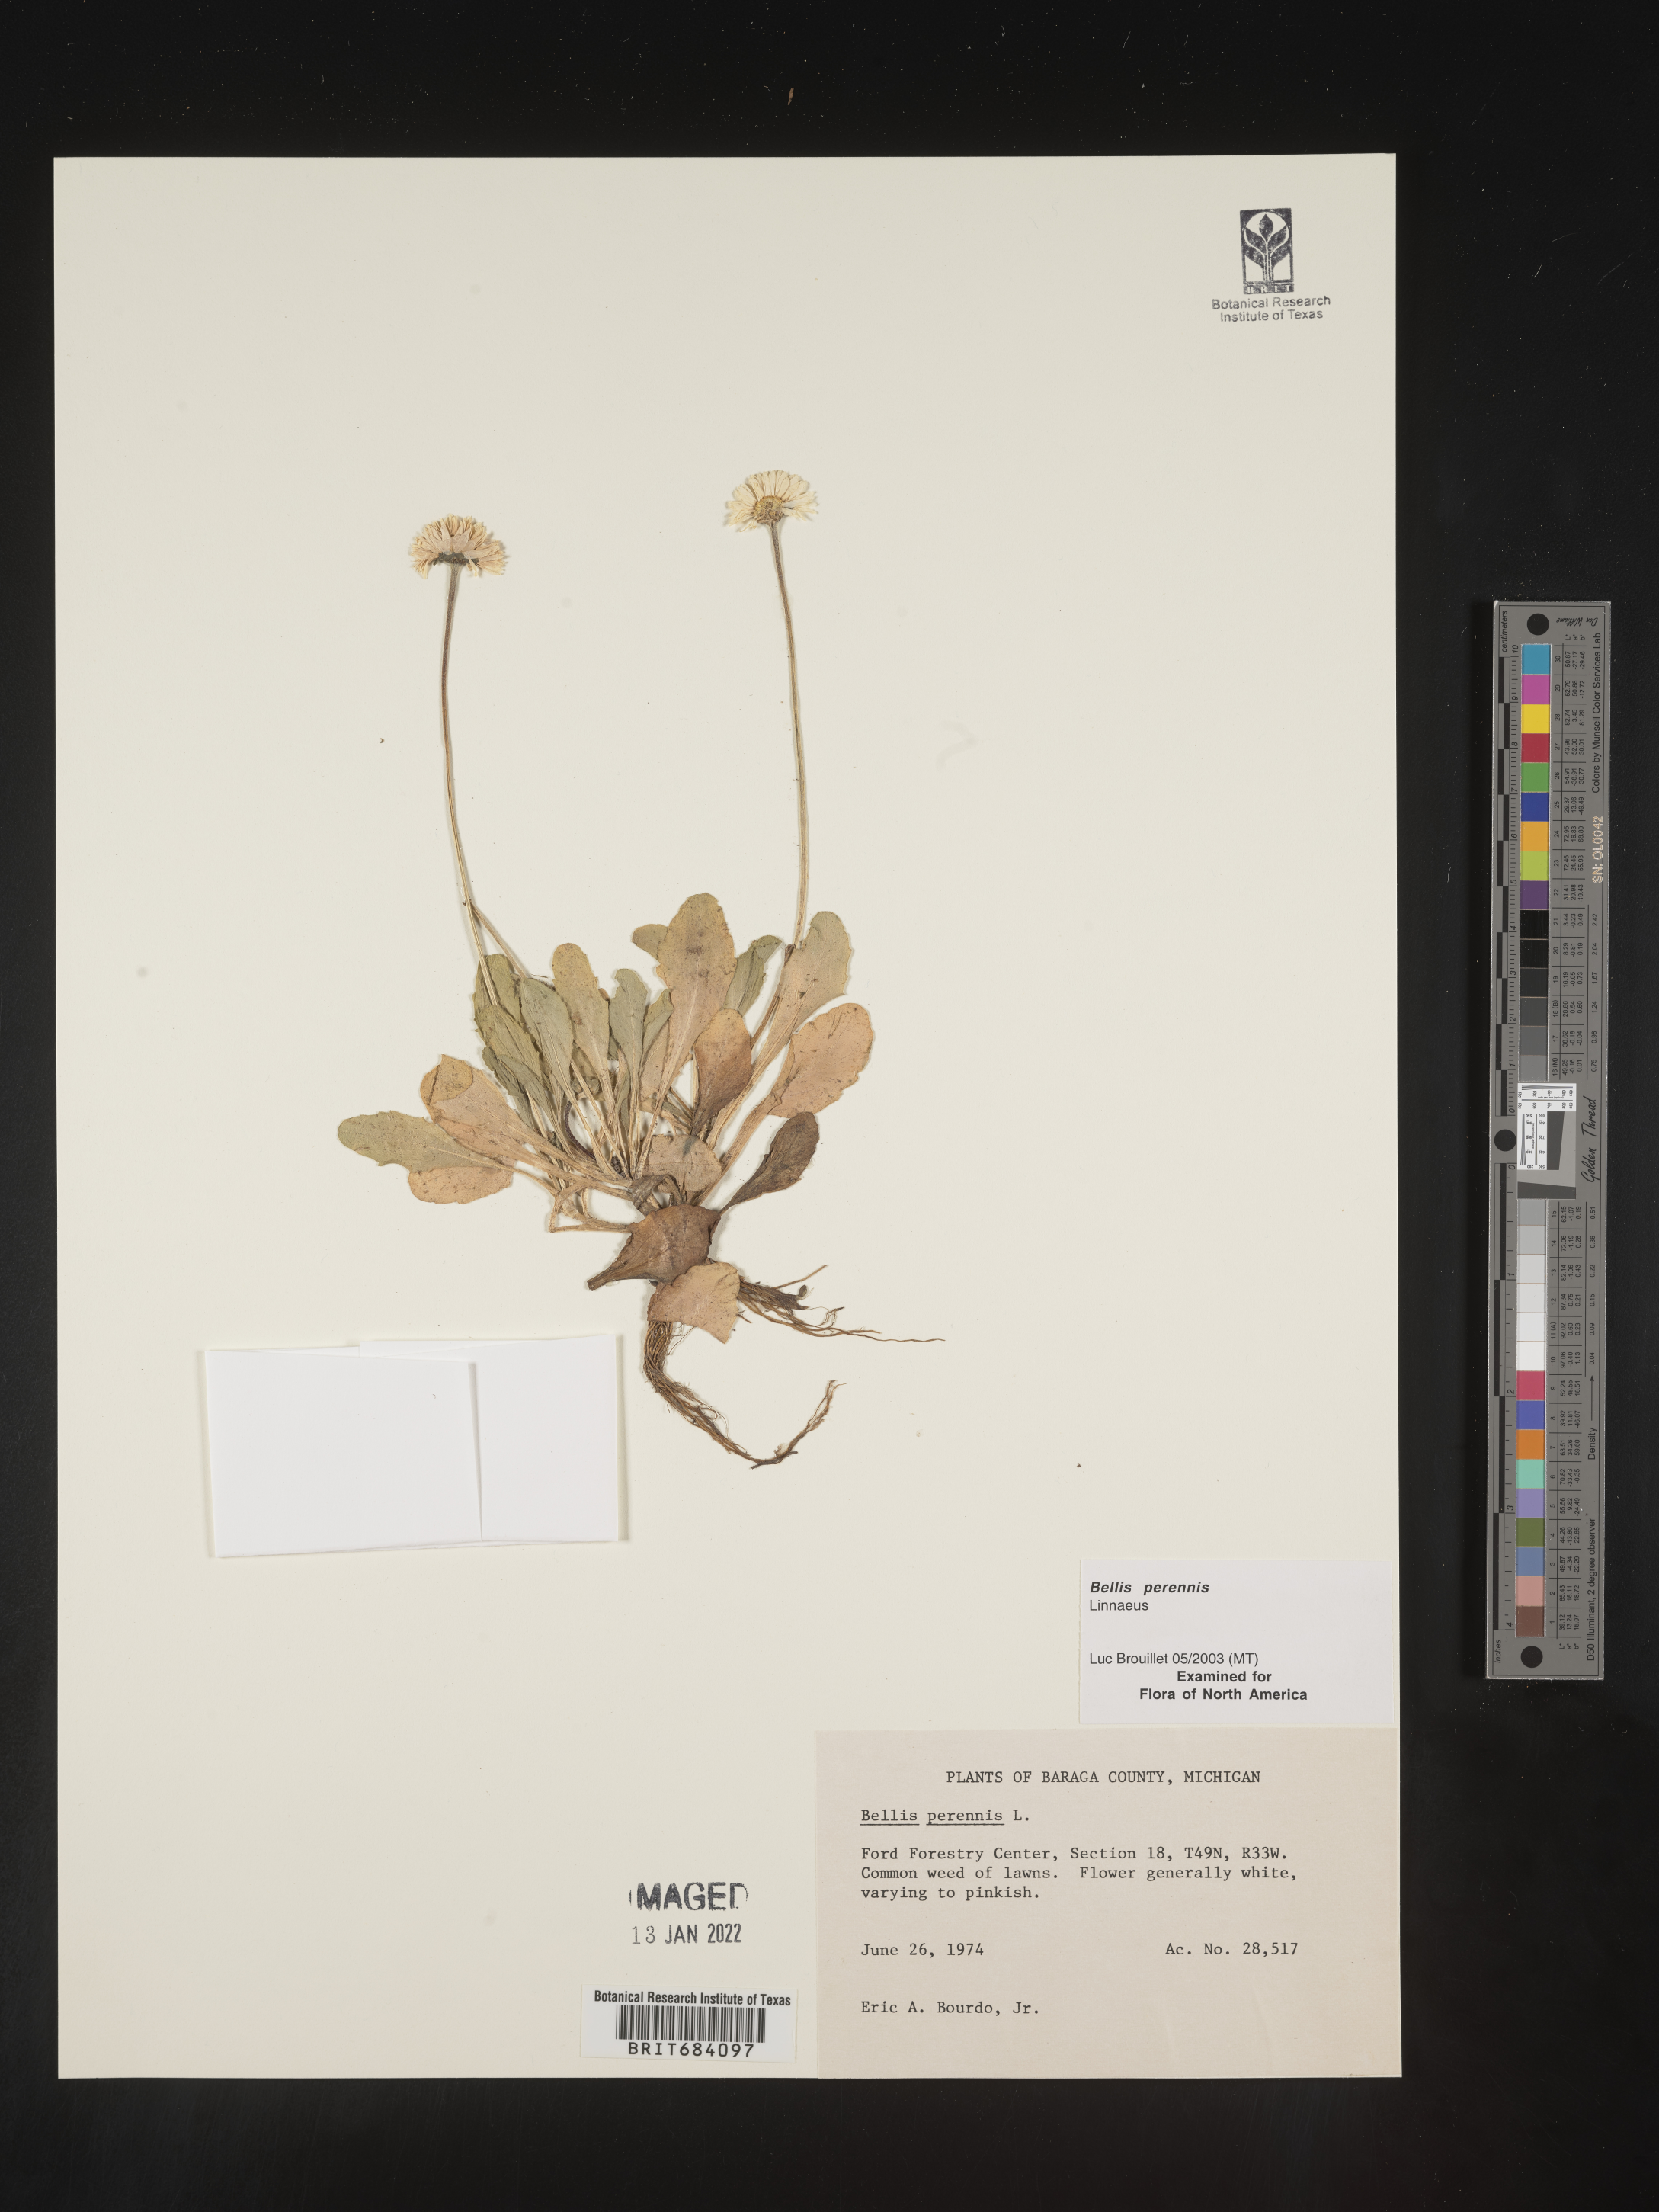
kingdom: Plantae
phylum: Tracheophyta
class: Magnoliopsida
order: Asterales
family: Asteraceae
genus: Bellis
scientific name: Bellis
